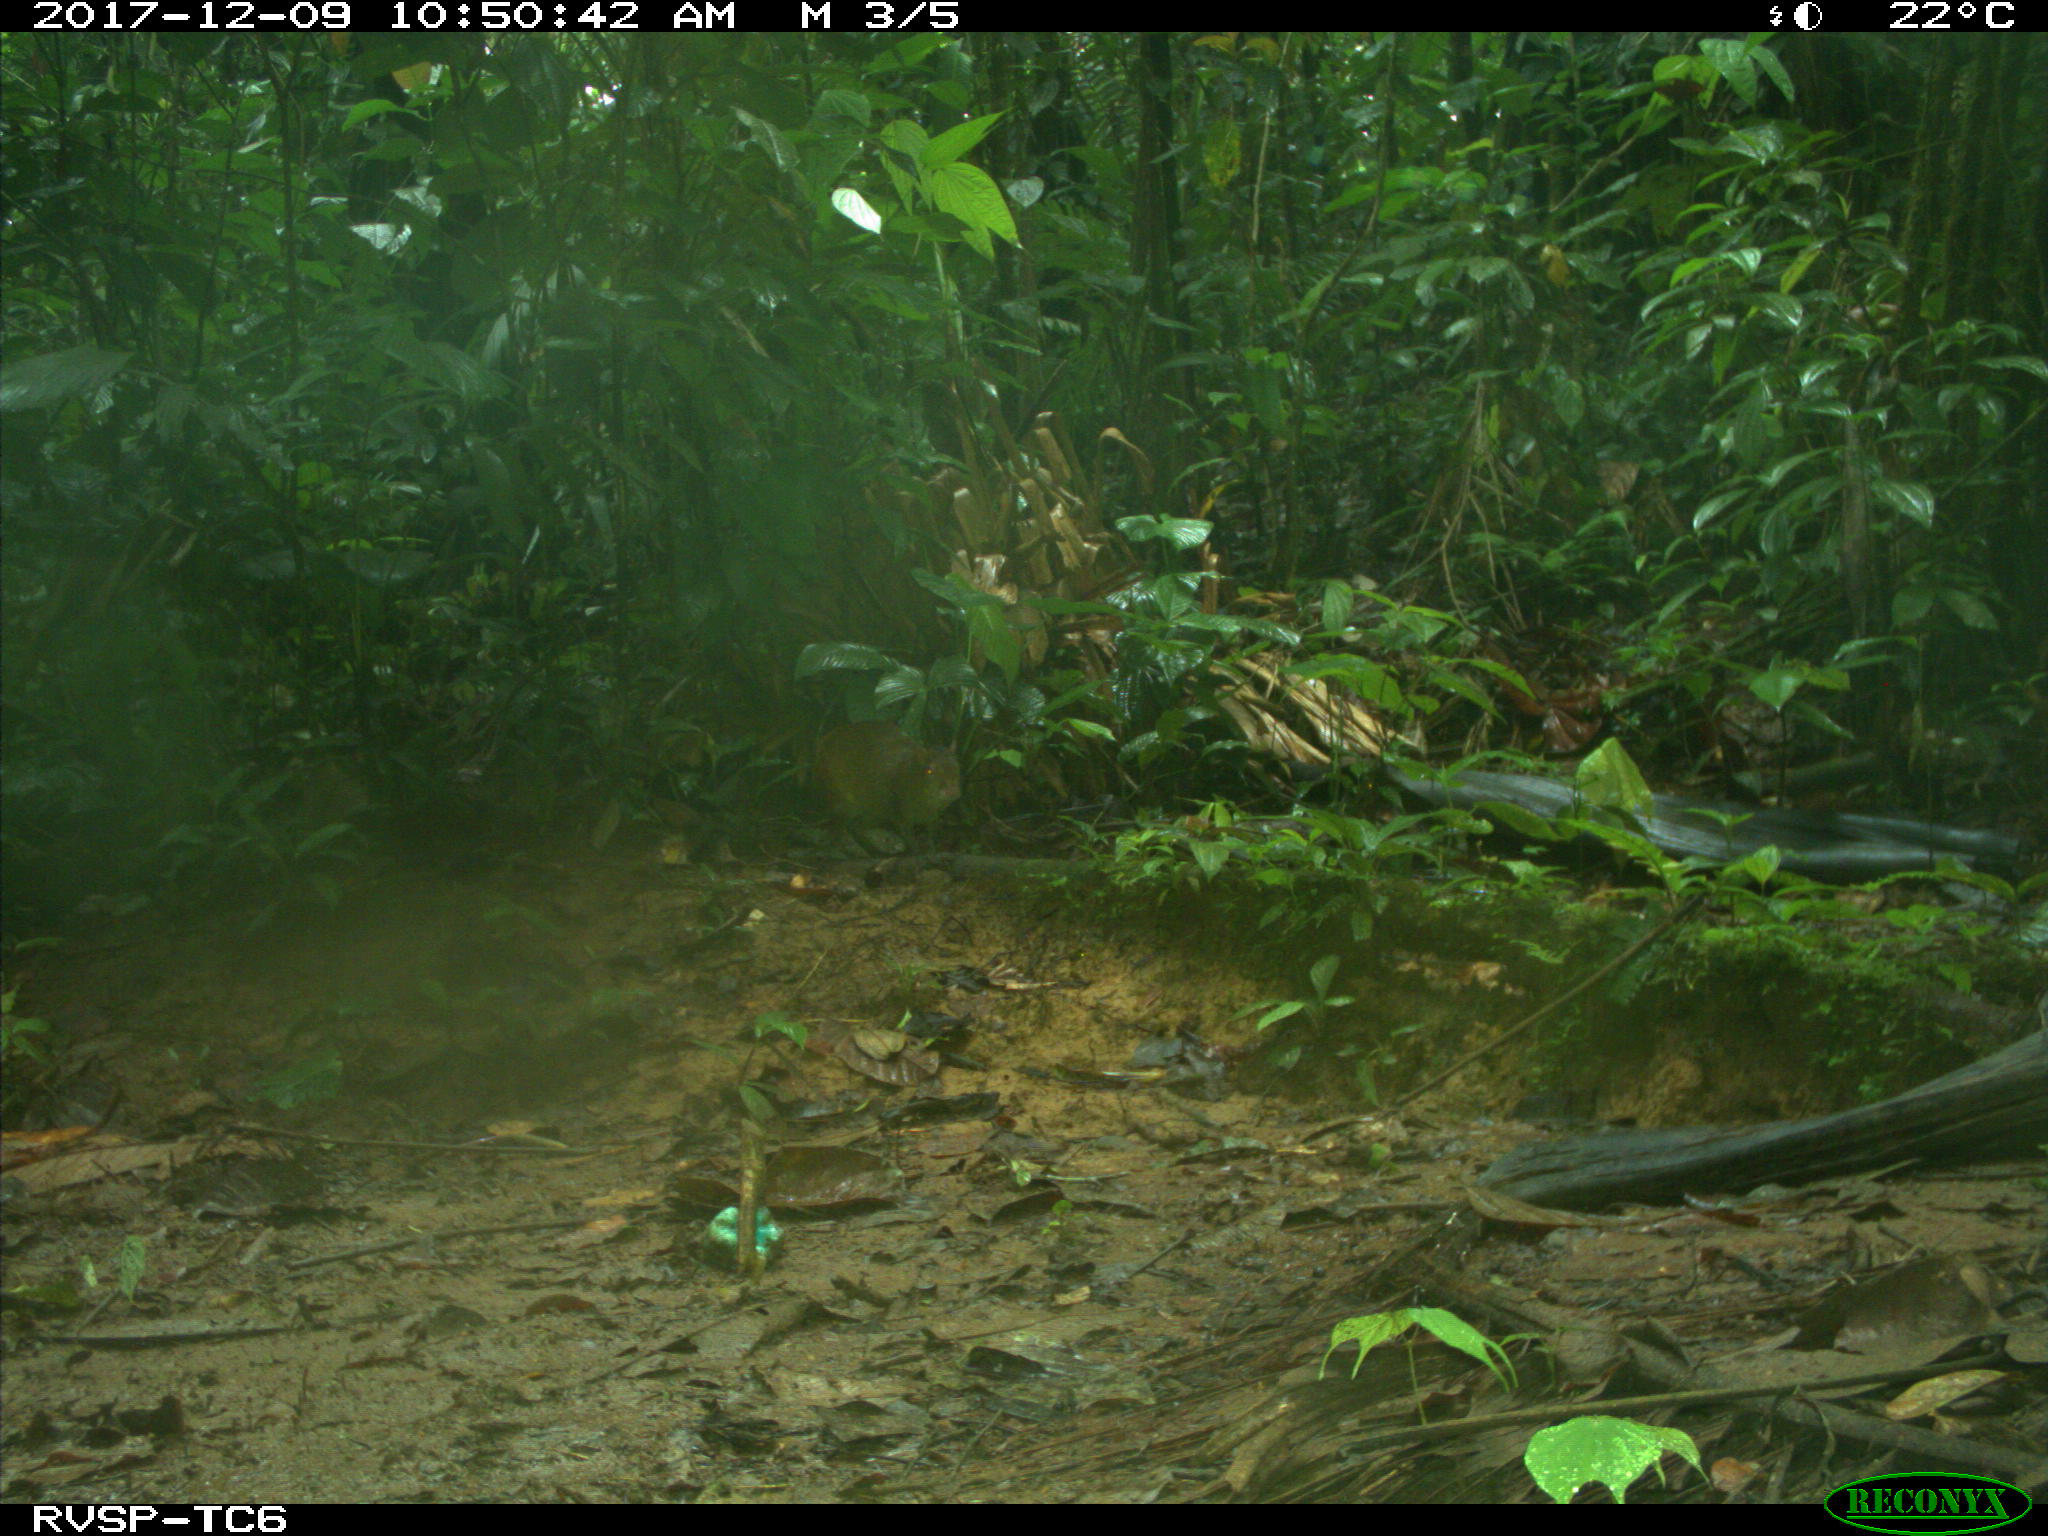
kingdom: Animalia
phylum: Chordata
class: Mammalia
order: Rodentia
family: Dasyproctidae
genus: Dasyprocta
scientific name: Dasyprocta punctata
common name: Central american agouti
